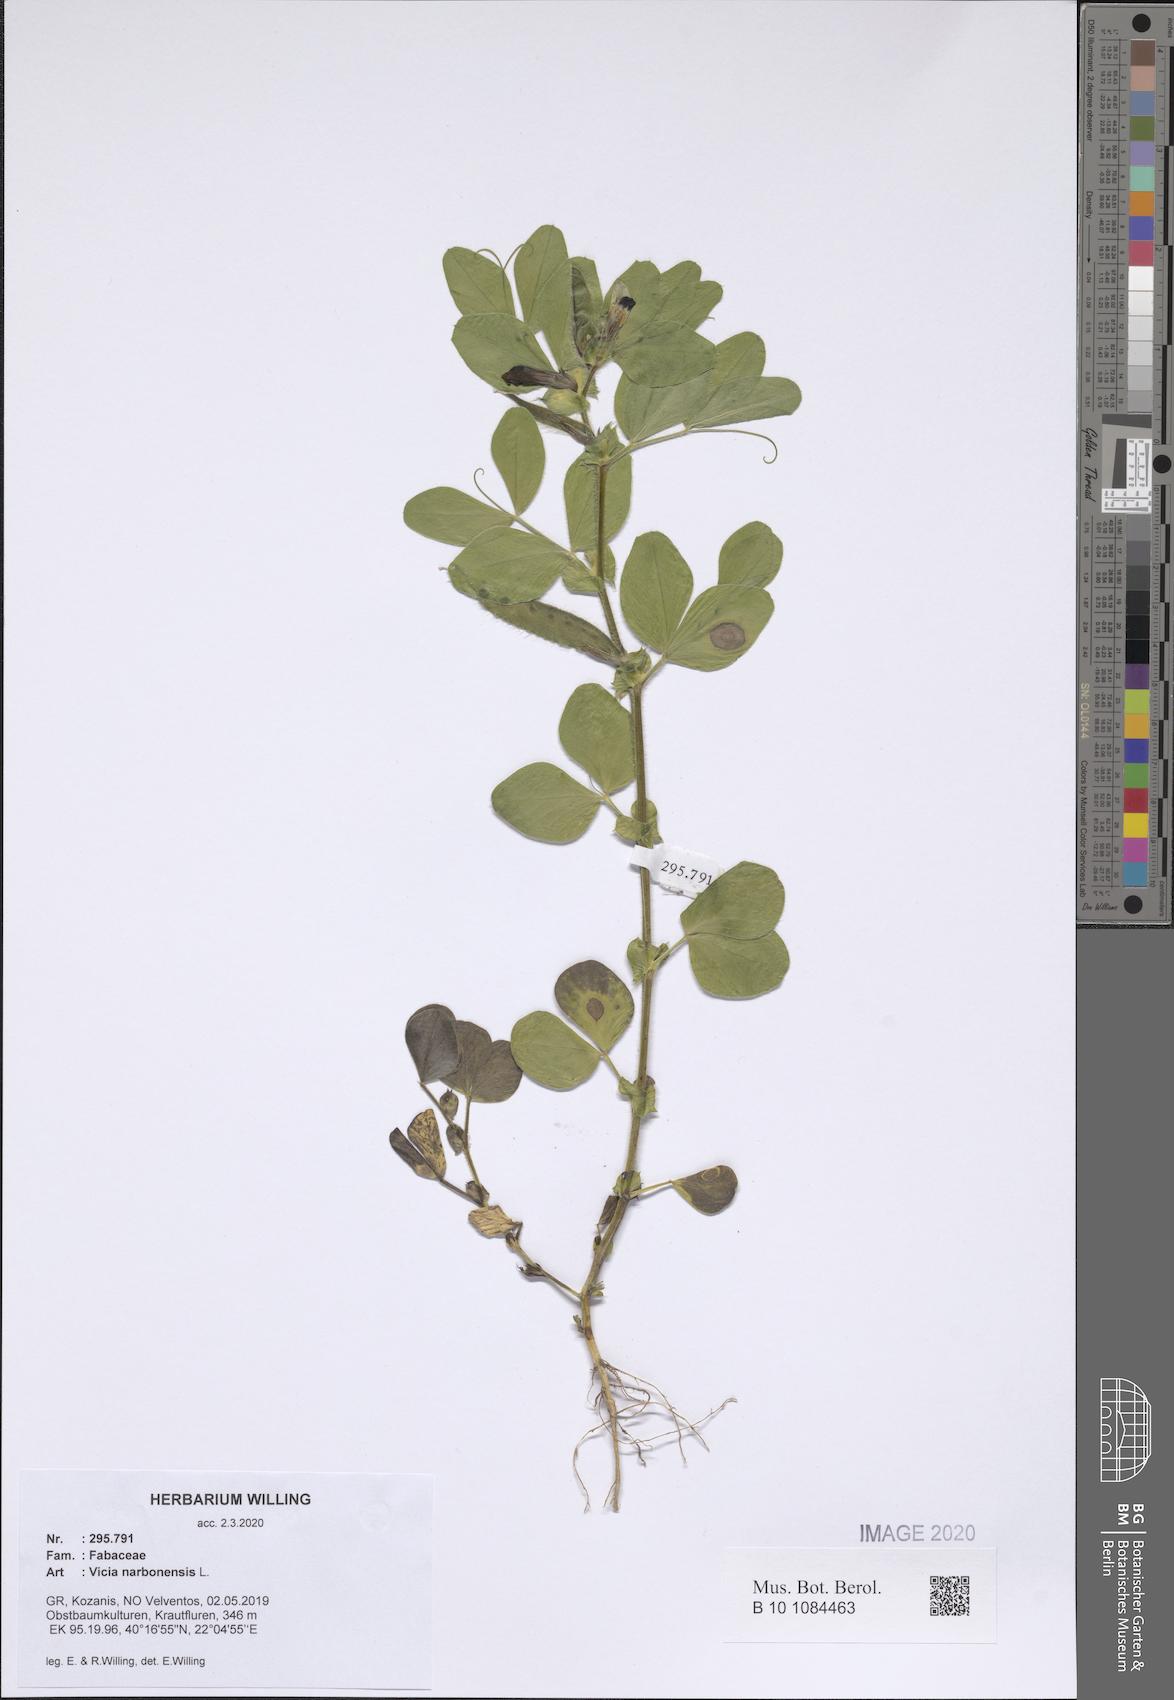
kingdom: Plantae
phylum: Tracheophyta
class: Magnoliopsida
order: Fabales
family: Fabaceae
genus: Vicia
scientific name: Vicia narbonensis
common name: Narbonne vetch
